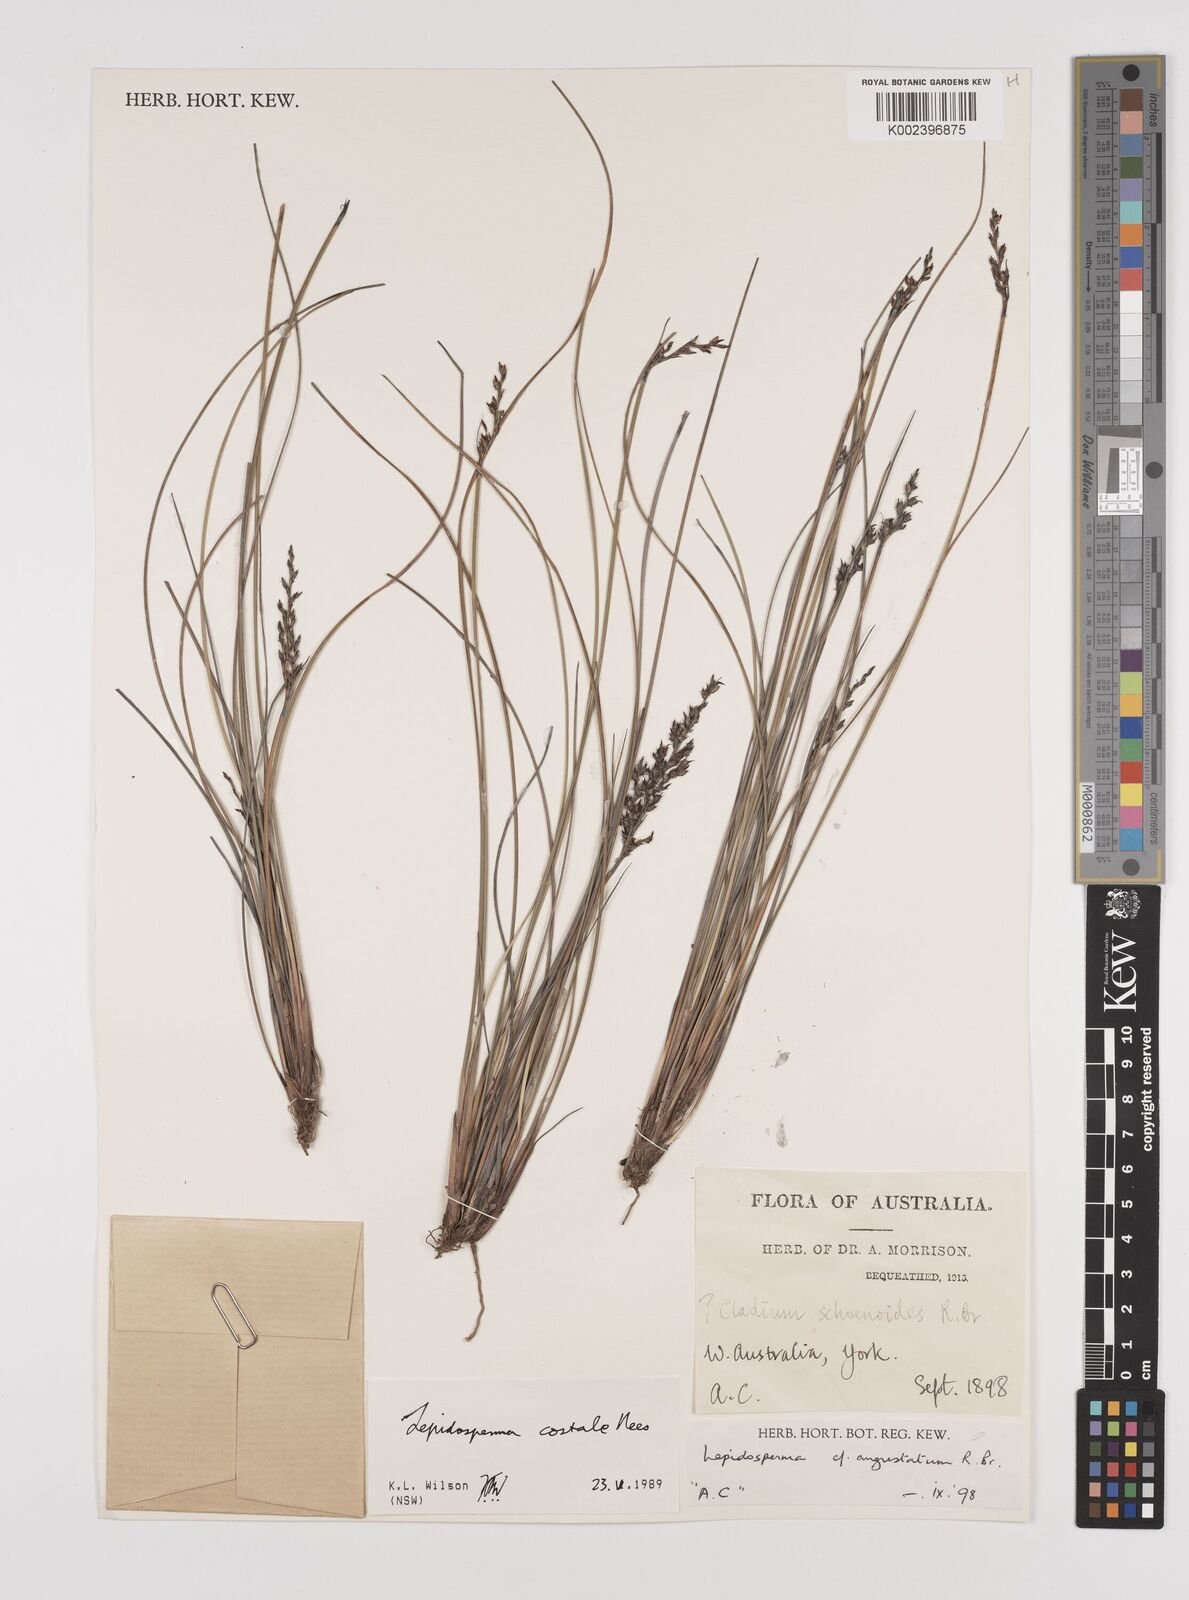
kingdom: Plantae
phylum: Tracheophyta
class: Liliopsida
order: Poales
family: Cyperaceae
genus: Lepidosperma
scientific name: Lepidosperma costale
